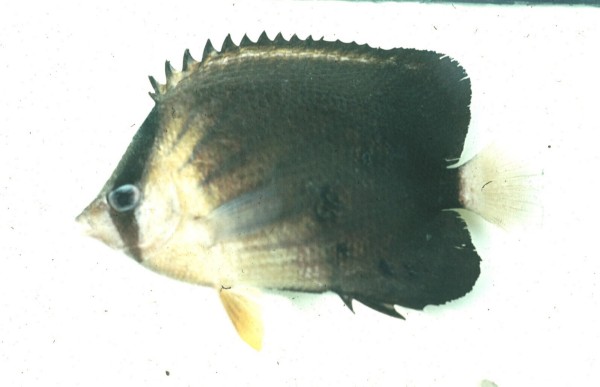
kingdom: Animalia
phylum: Chordata
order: Perciformes
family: Chaetodontidae
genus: Chaetodon
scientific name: Chaetodon blackburnii
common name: Blackburn's butterflyfish
